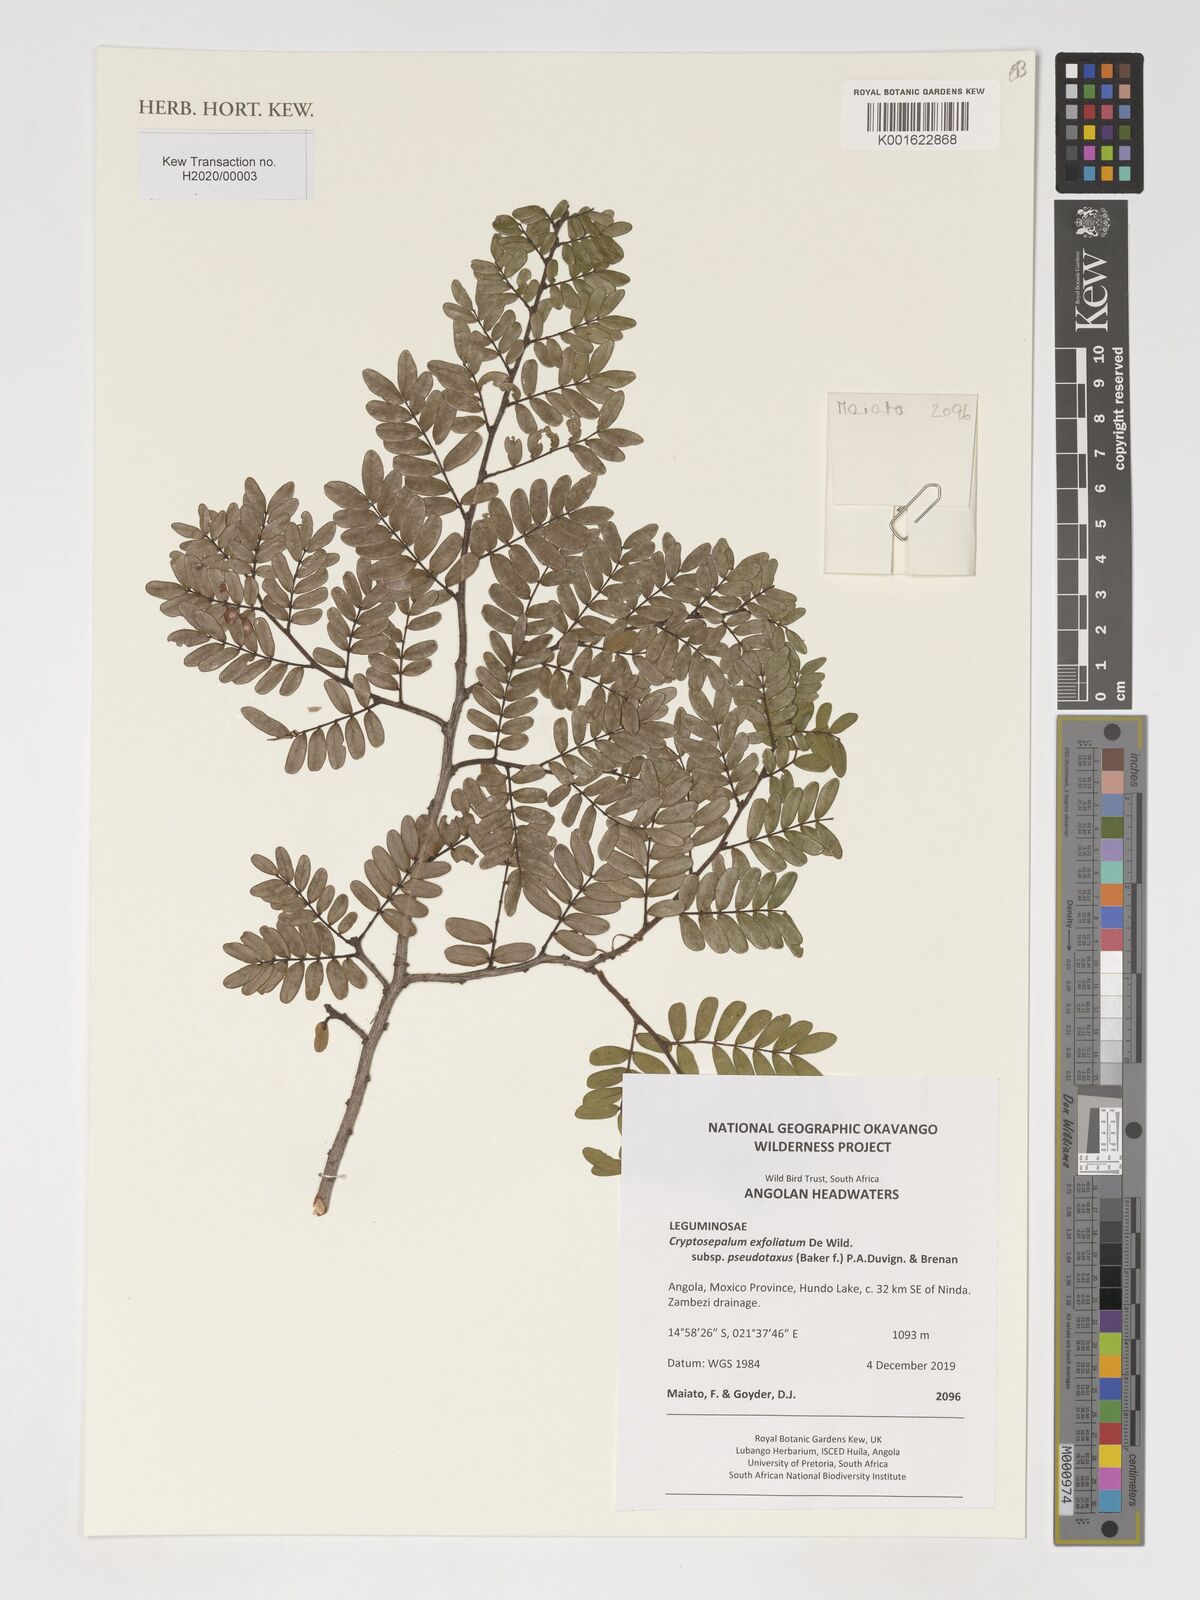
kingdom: Plantae
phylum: Tracheophyta
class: Magnoliopsida
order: Fabales
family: Fabaceae
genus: Cryptosepalum
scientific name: Cryptosepalum exfoliatum
